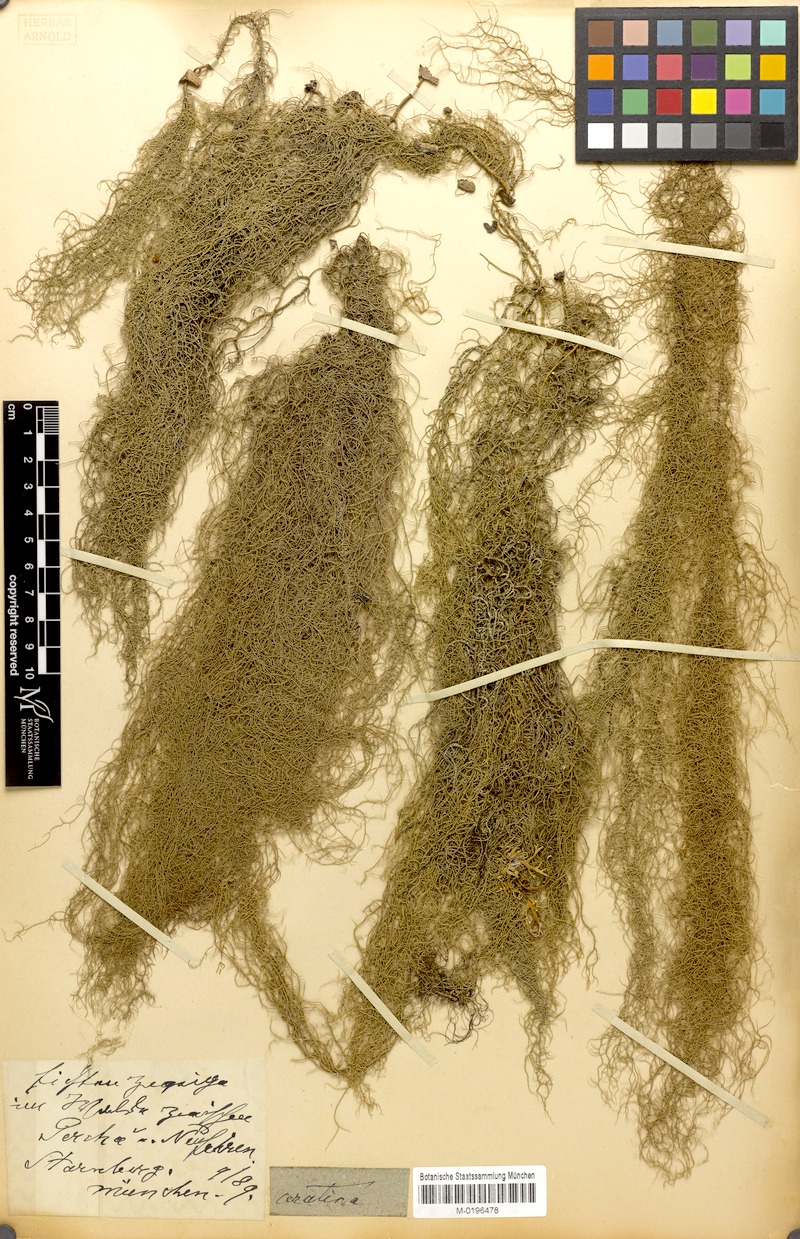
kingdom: Fungi
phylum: Ascomycota
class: Lecanoromycetes
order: Lecanorales
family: Parmeliaceae
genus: Usnea
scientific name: Usnea ceratina
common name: Warty beard lichen
